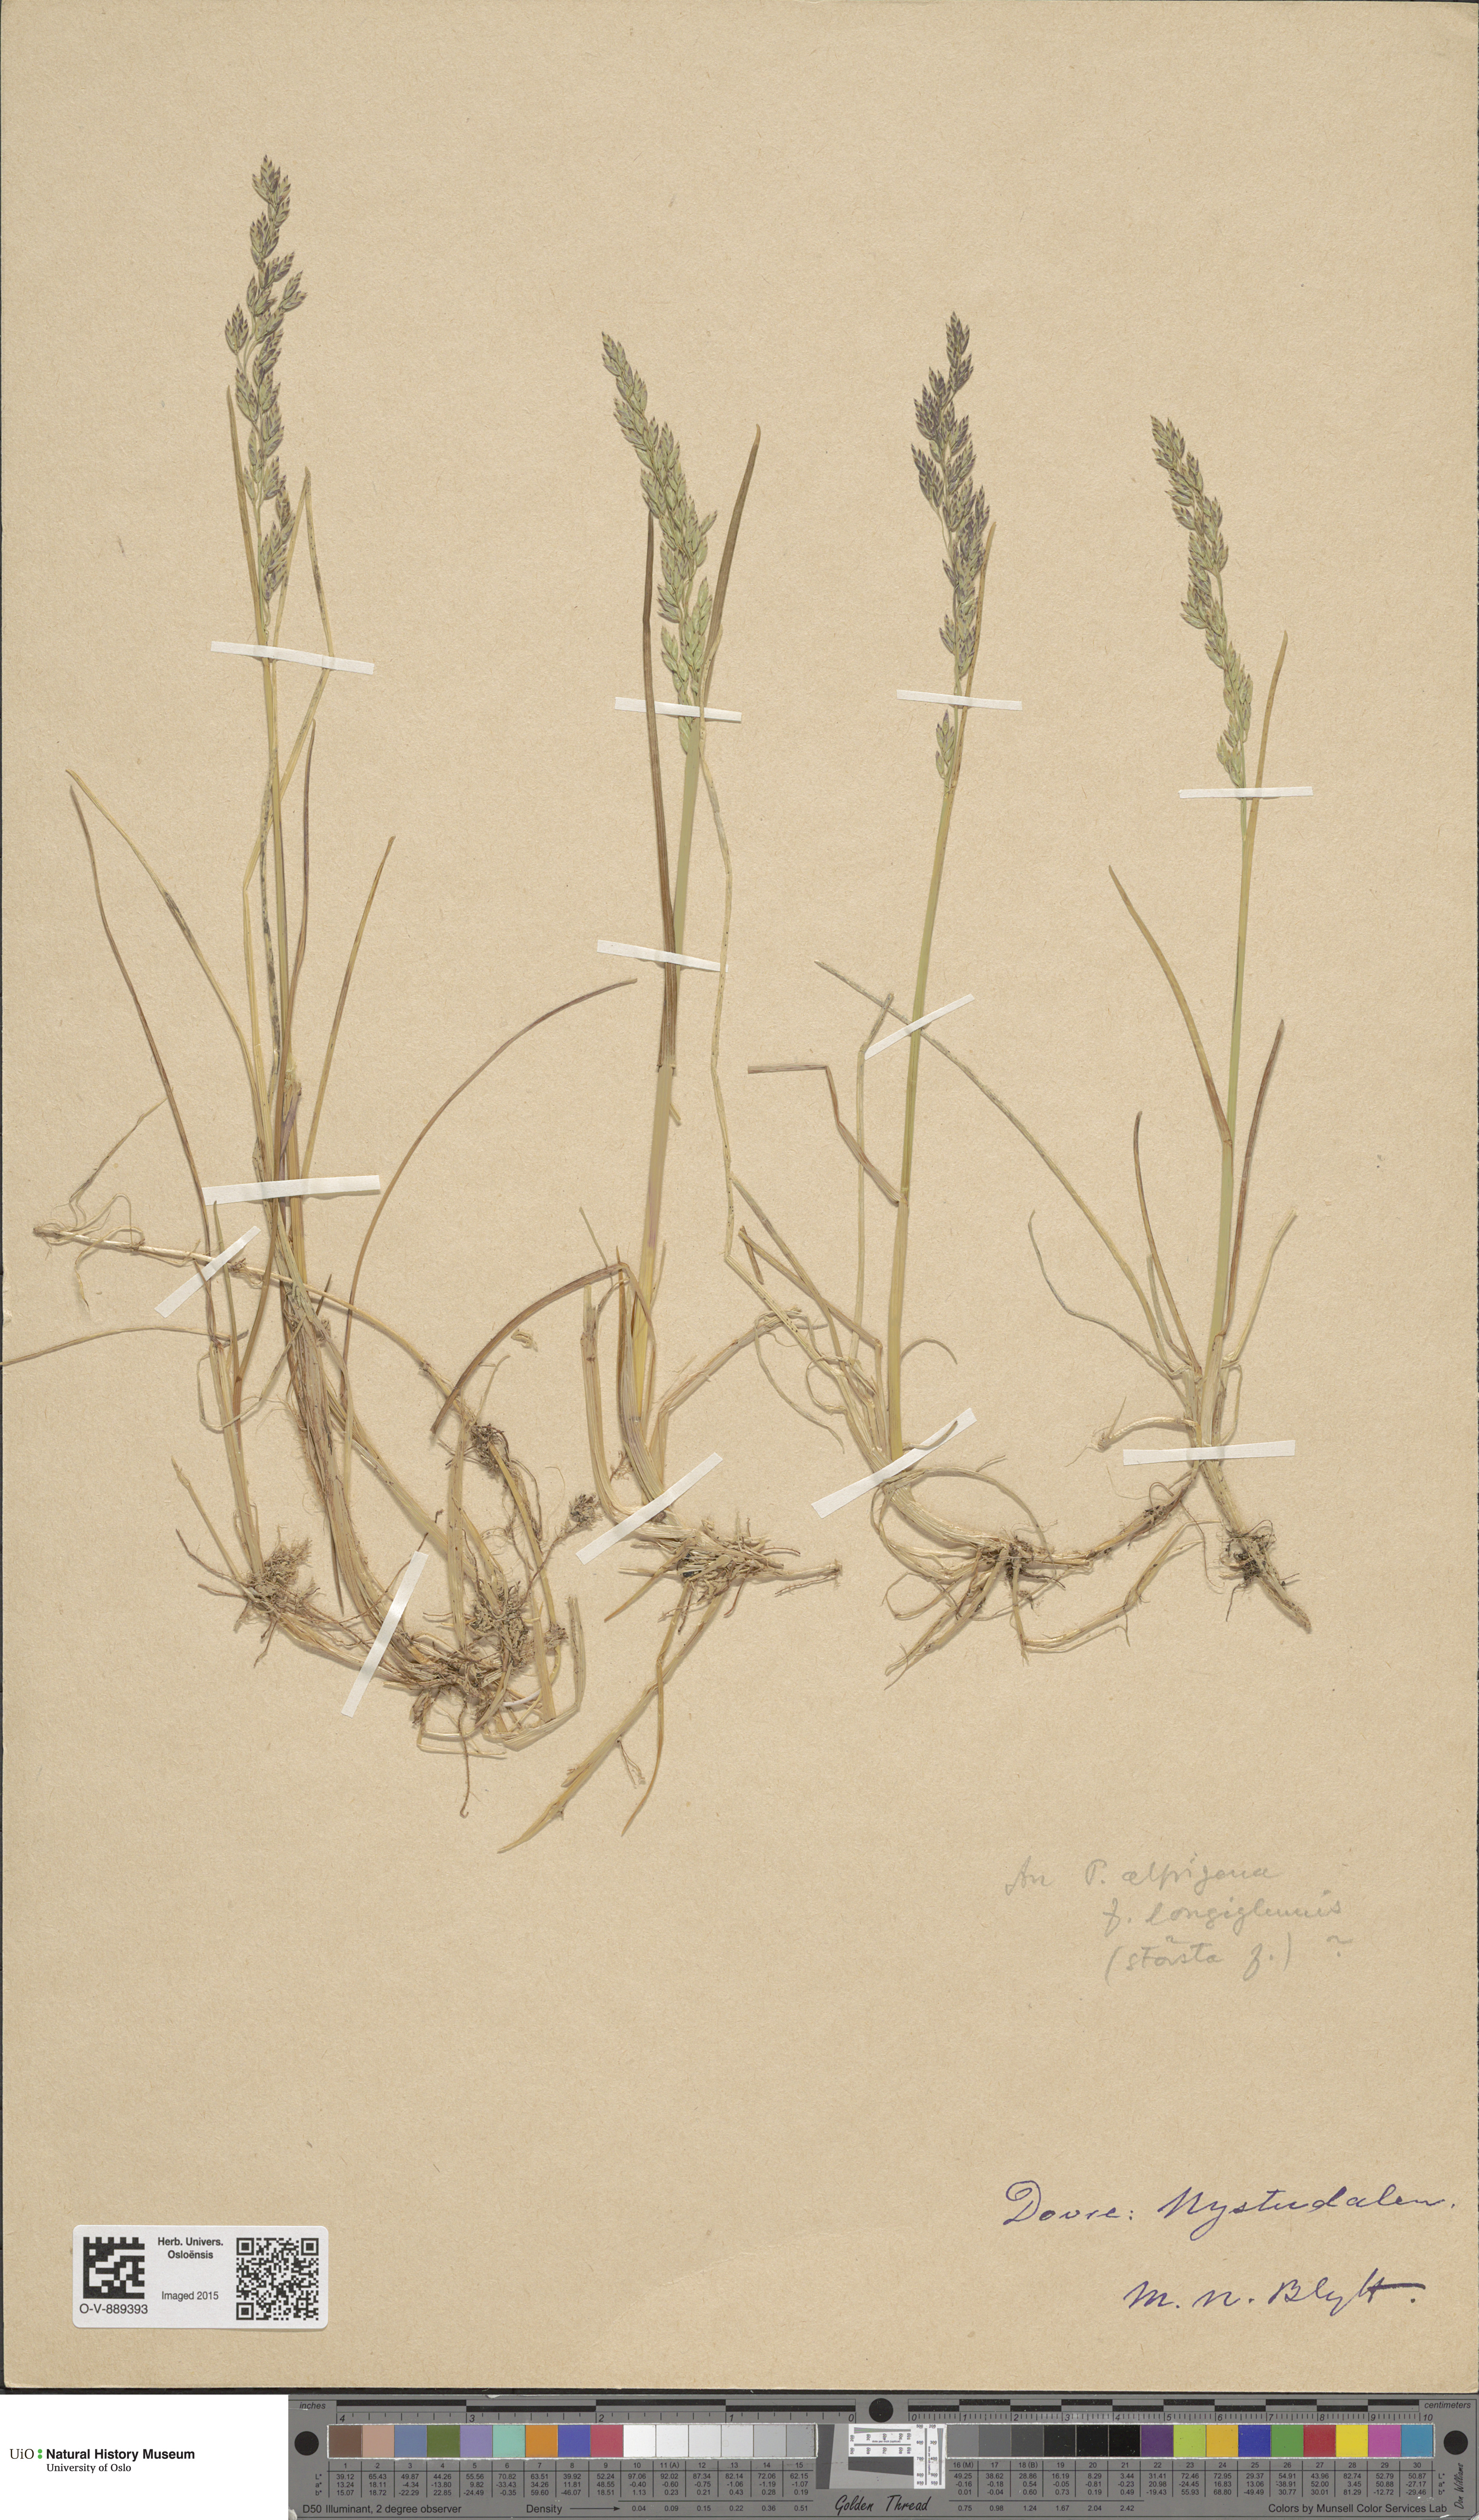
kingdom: Plantae
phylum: Tracheophyta
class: Liliopsida
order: Poales
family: Poaceae
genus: Poa
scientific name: Poa alpigena
